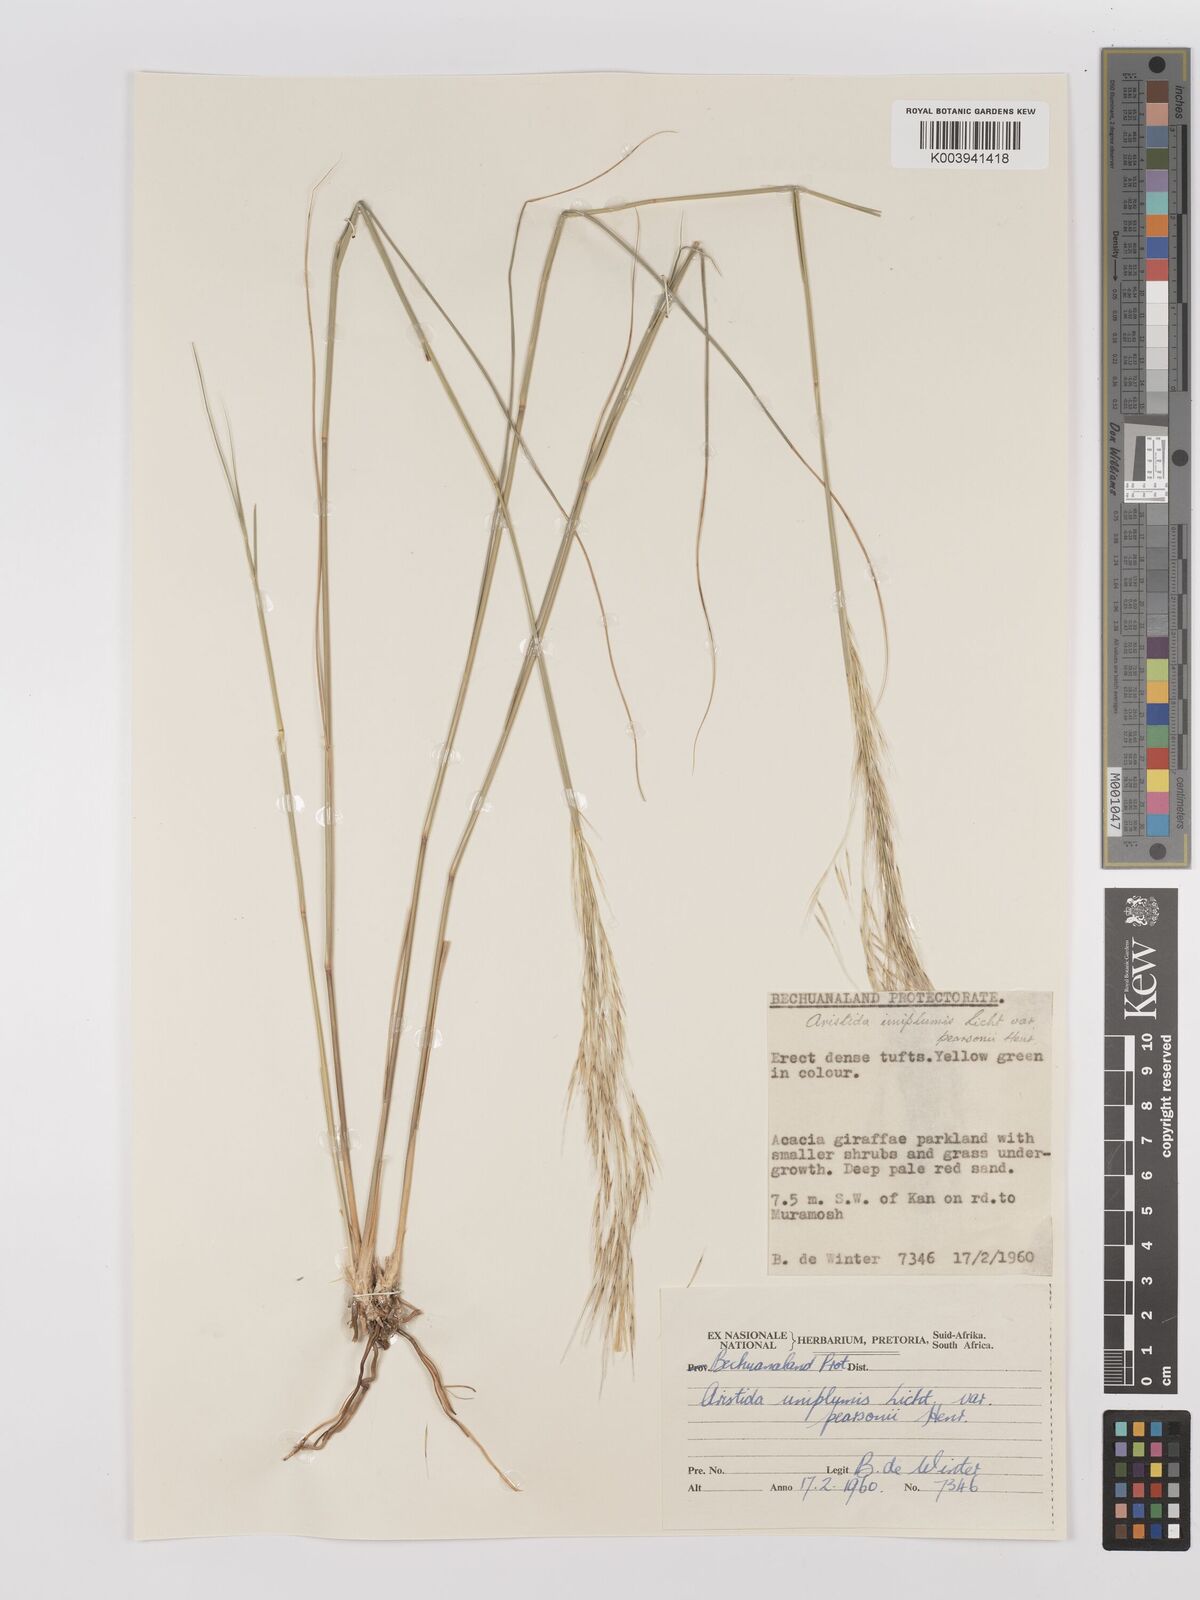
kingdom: Plantae
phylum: Tracheophyta
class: Liliopsida
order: Poales
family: Poaceae
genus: Stipagrostis
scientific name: Stipagrostis uniplumis
